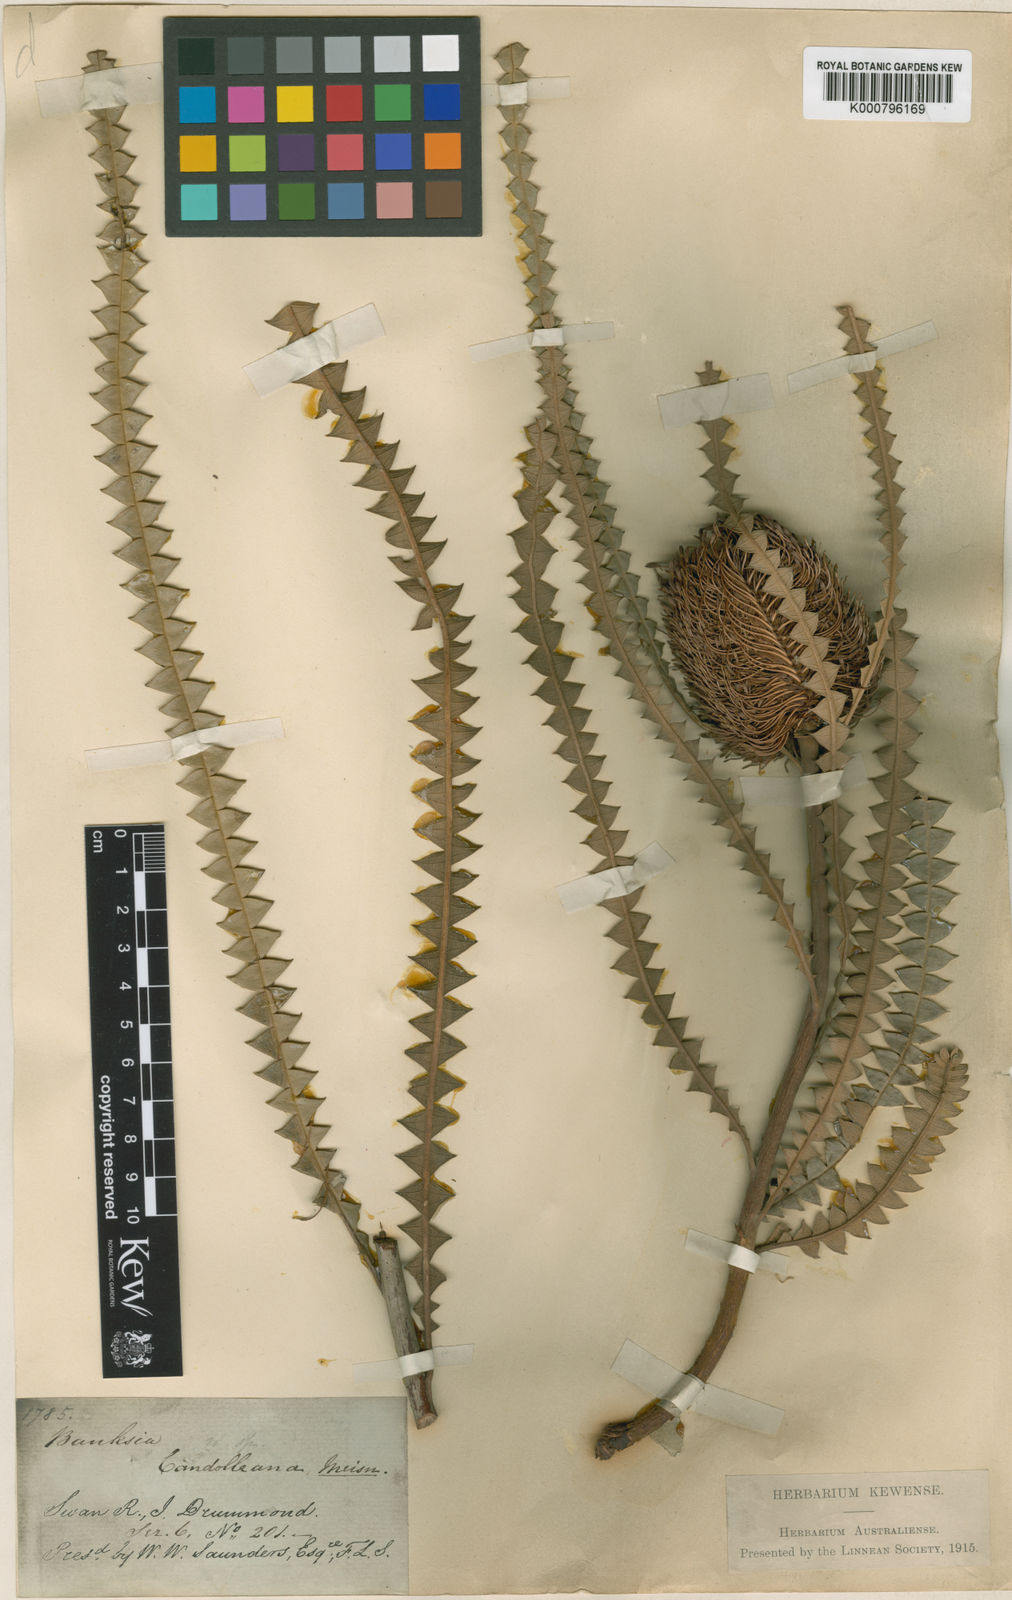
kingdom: Plantae
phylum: Tracheophyta
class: Magnoliopsida
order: Proteales
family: Proteaceae
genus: Banksia
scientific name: Banksia candolleana
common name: Propeller banksia
